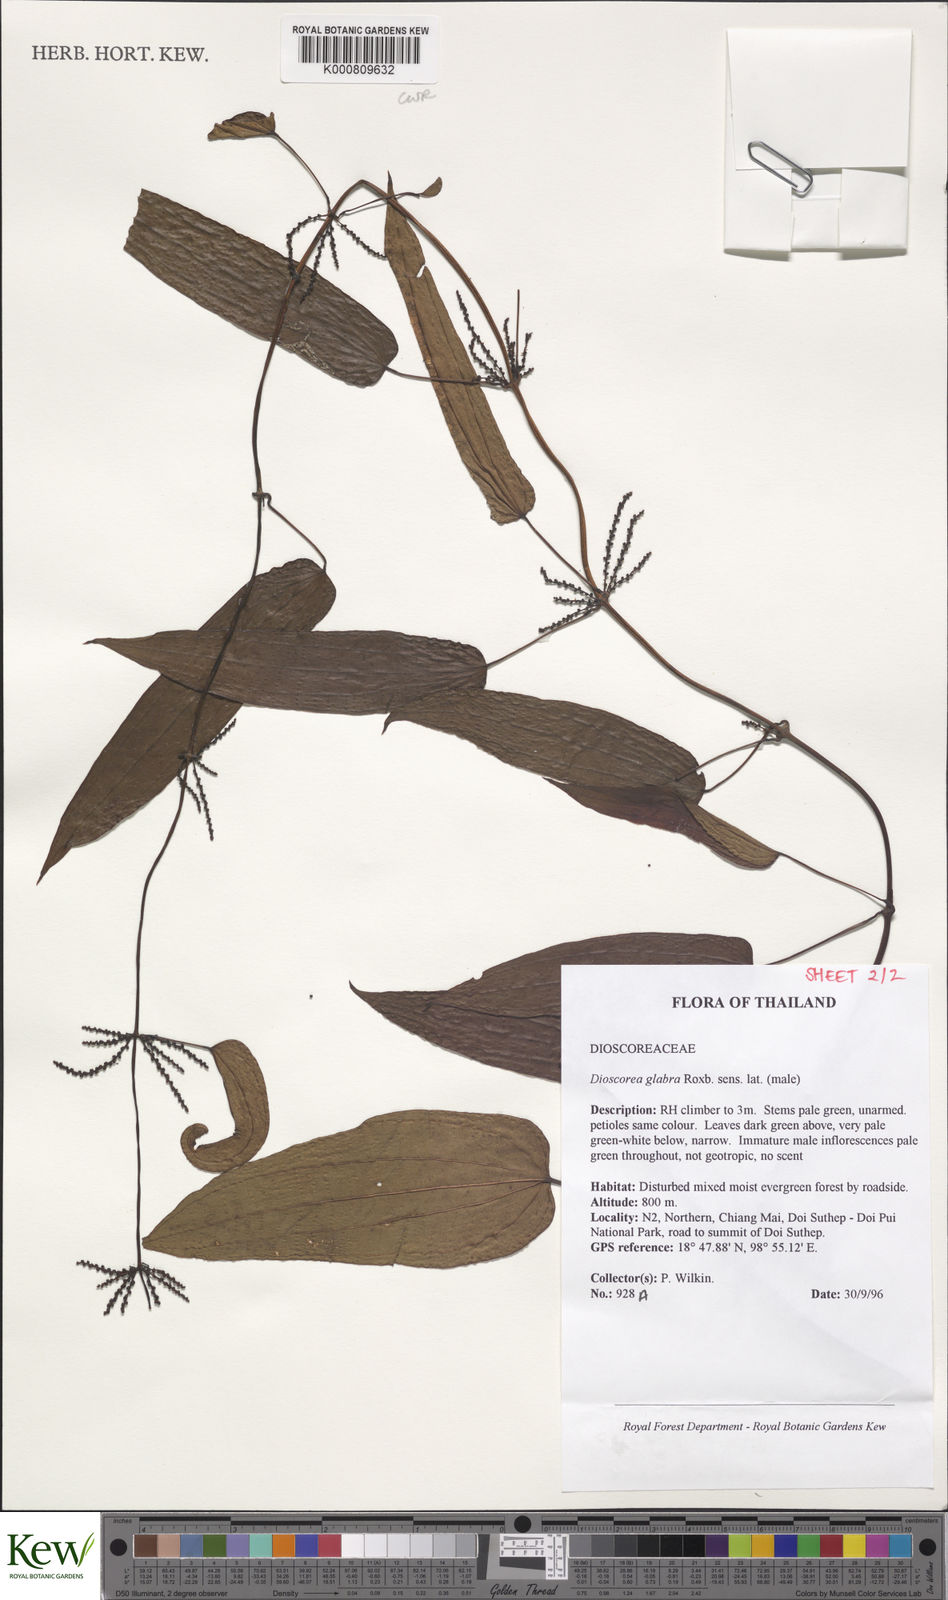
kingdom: Plantae
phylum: Tracheophyta
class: Liliopsida
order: Dioscoreales
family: Dioscoreaceae
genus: Dioscorea
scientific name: Dioscorea glabra
